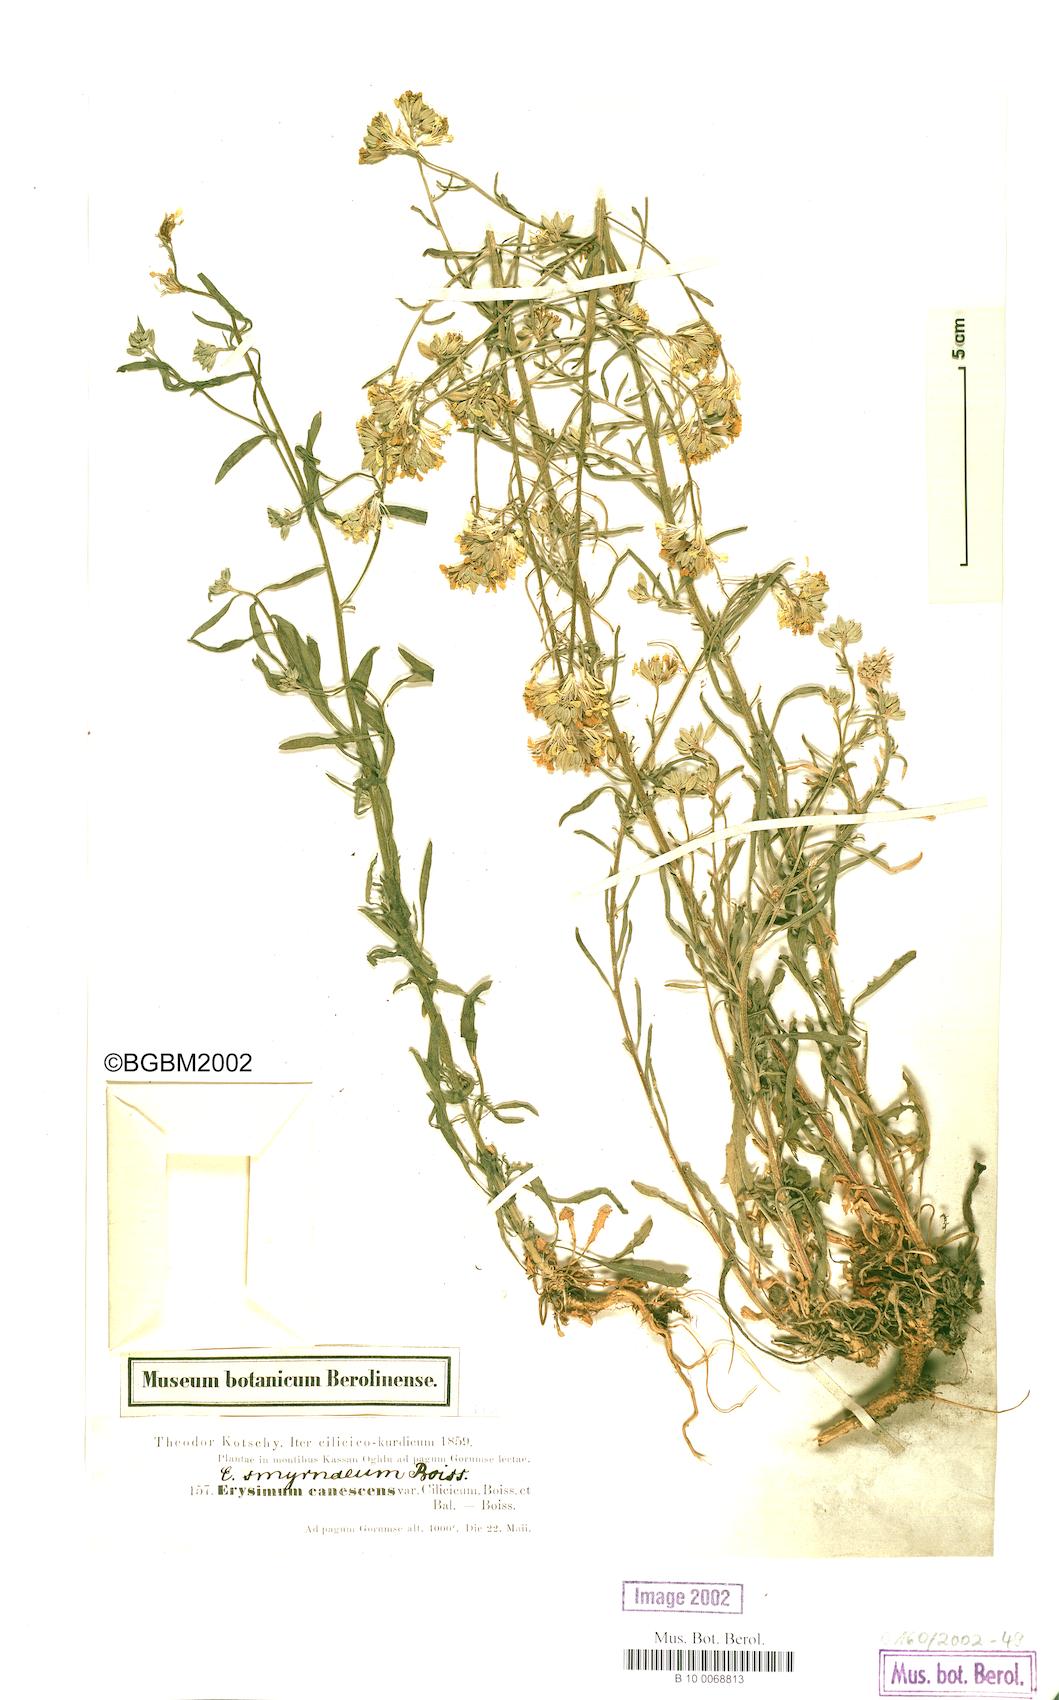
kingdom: Plantae
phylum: Tracheophyta
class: Magnoliopsida
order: Brassicales
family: Brassicaceae
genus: Erysimum
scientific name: Erysimum smyrnaeum
